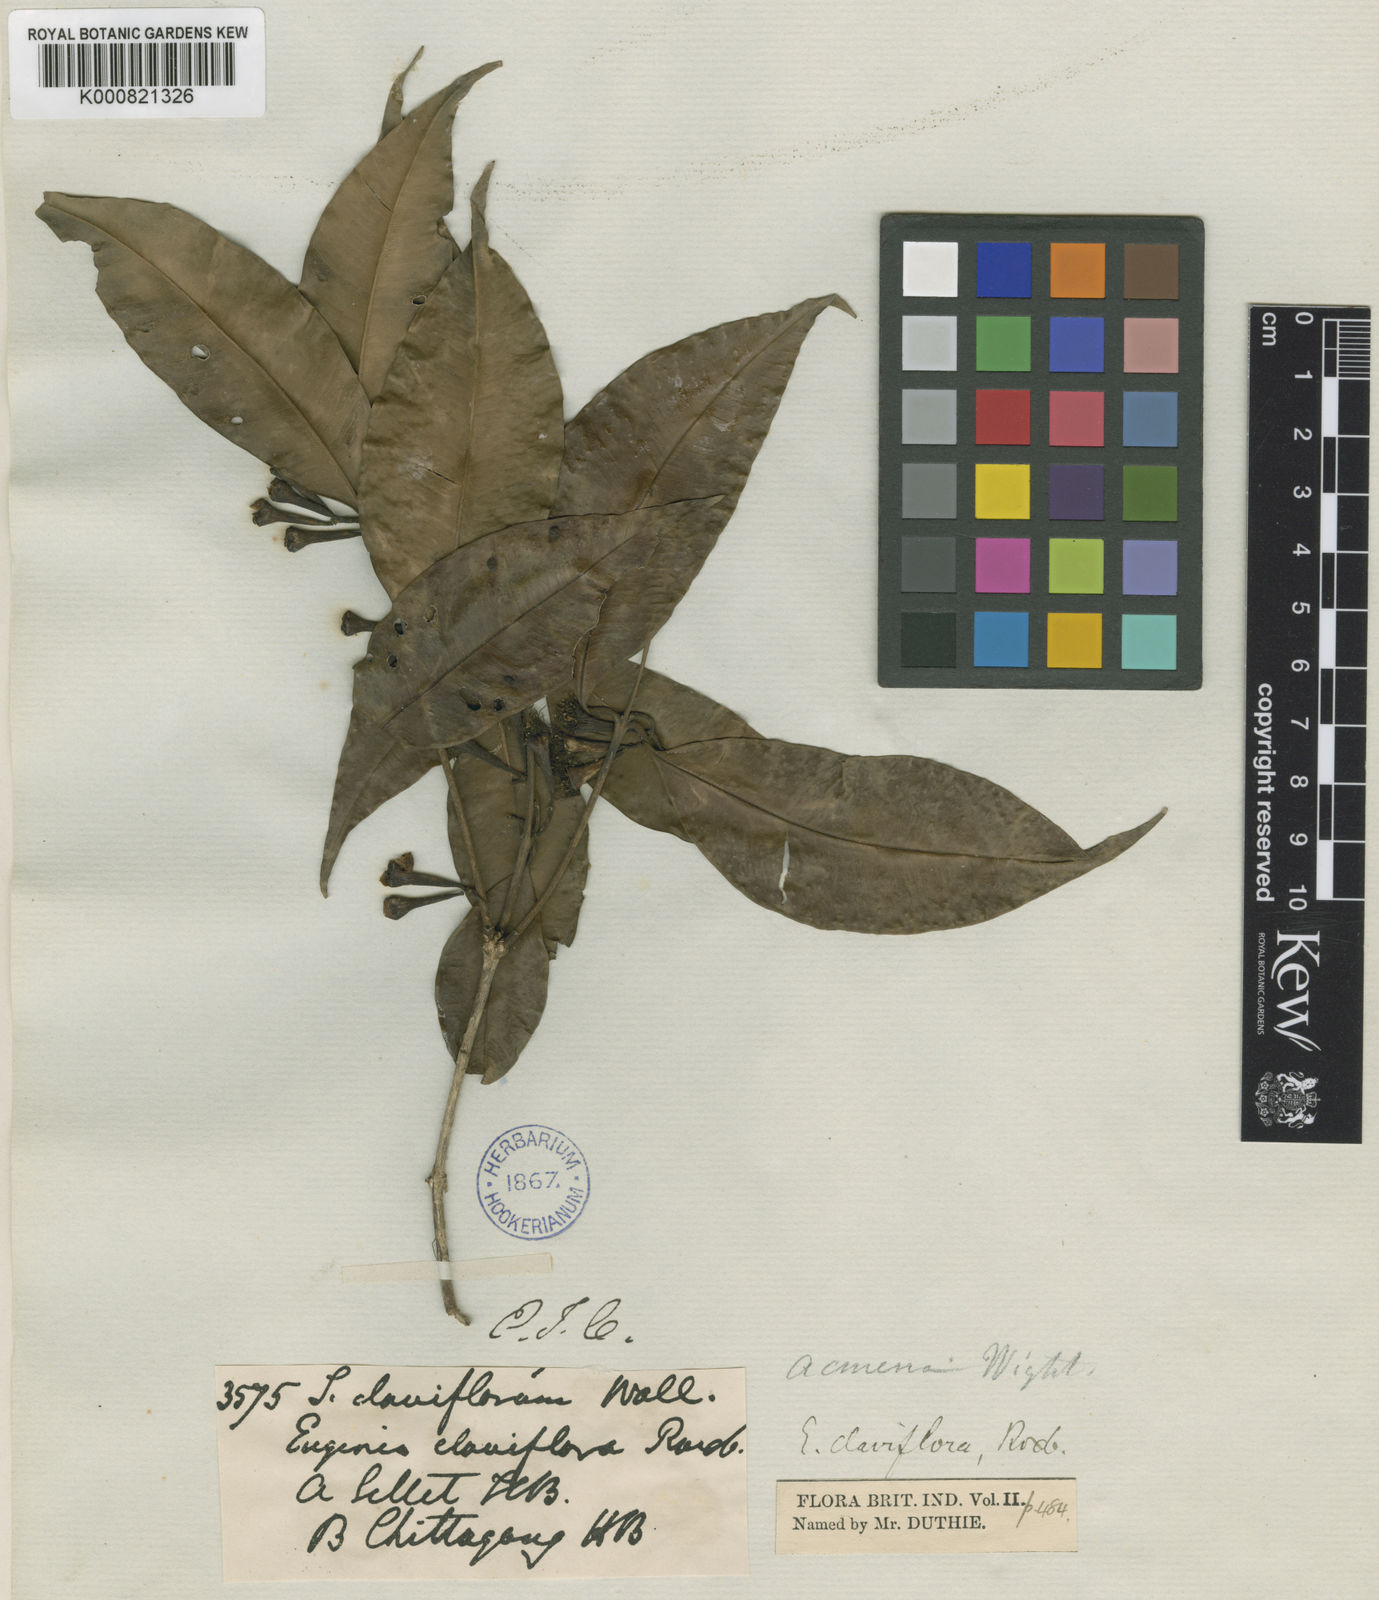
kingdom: Plantae
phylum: Tracheophyta
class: Magnoliopsida
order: Myrtales
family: Myrtaceae
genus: Syzygium
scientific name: Syzygium claviflorum
